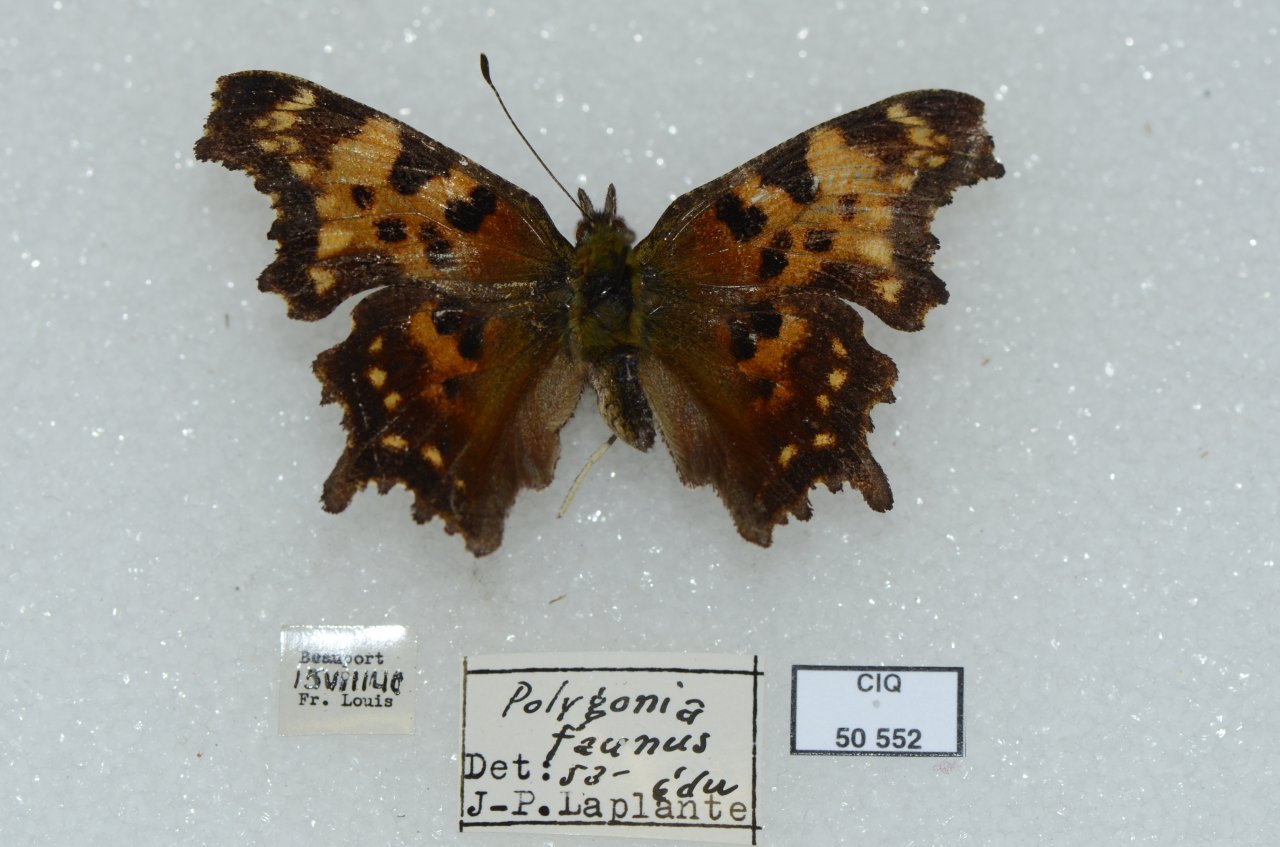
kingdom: Animalia
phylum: Arthropoda
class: Insecta
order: Lepidoptera
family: Nymphalidae
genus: Polygonia
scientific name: Polygonia faunus
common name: Green Comma
